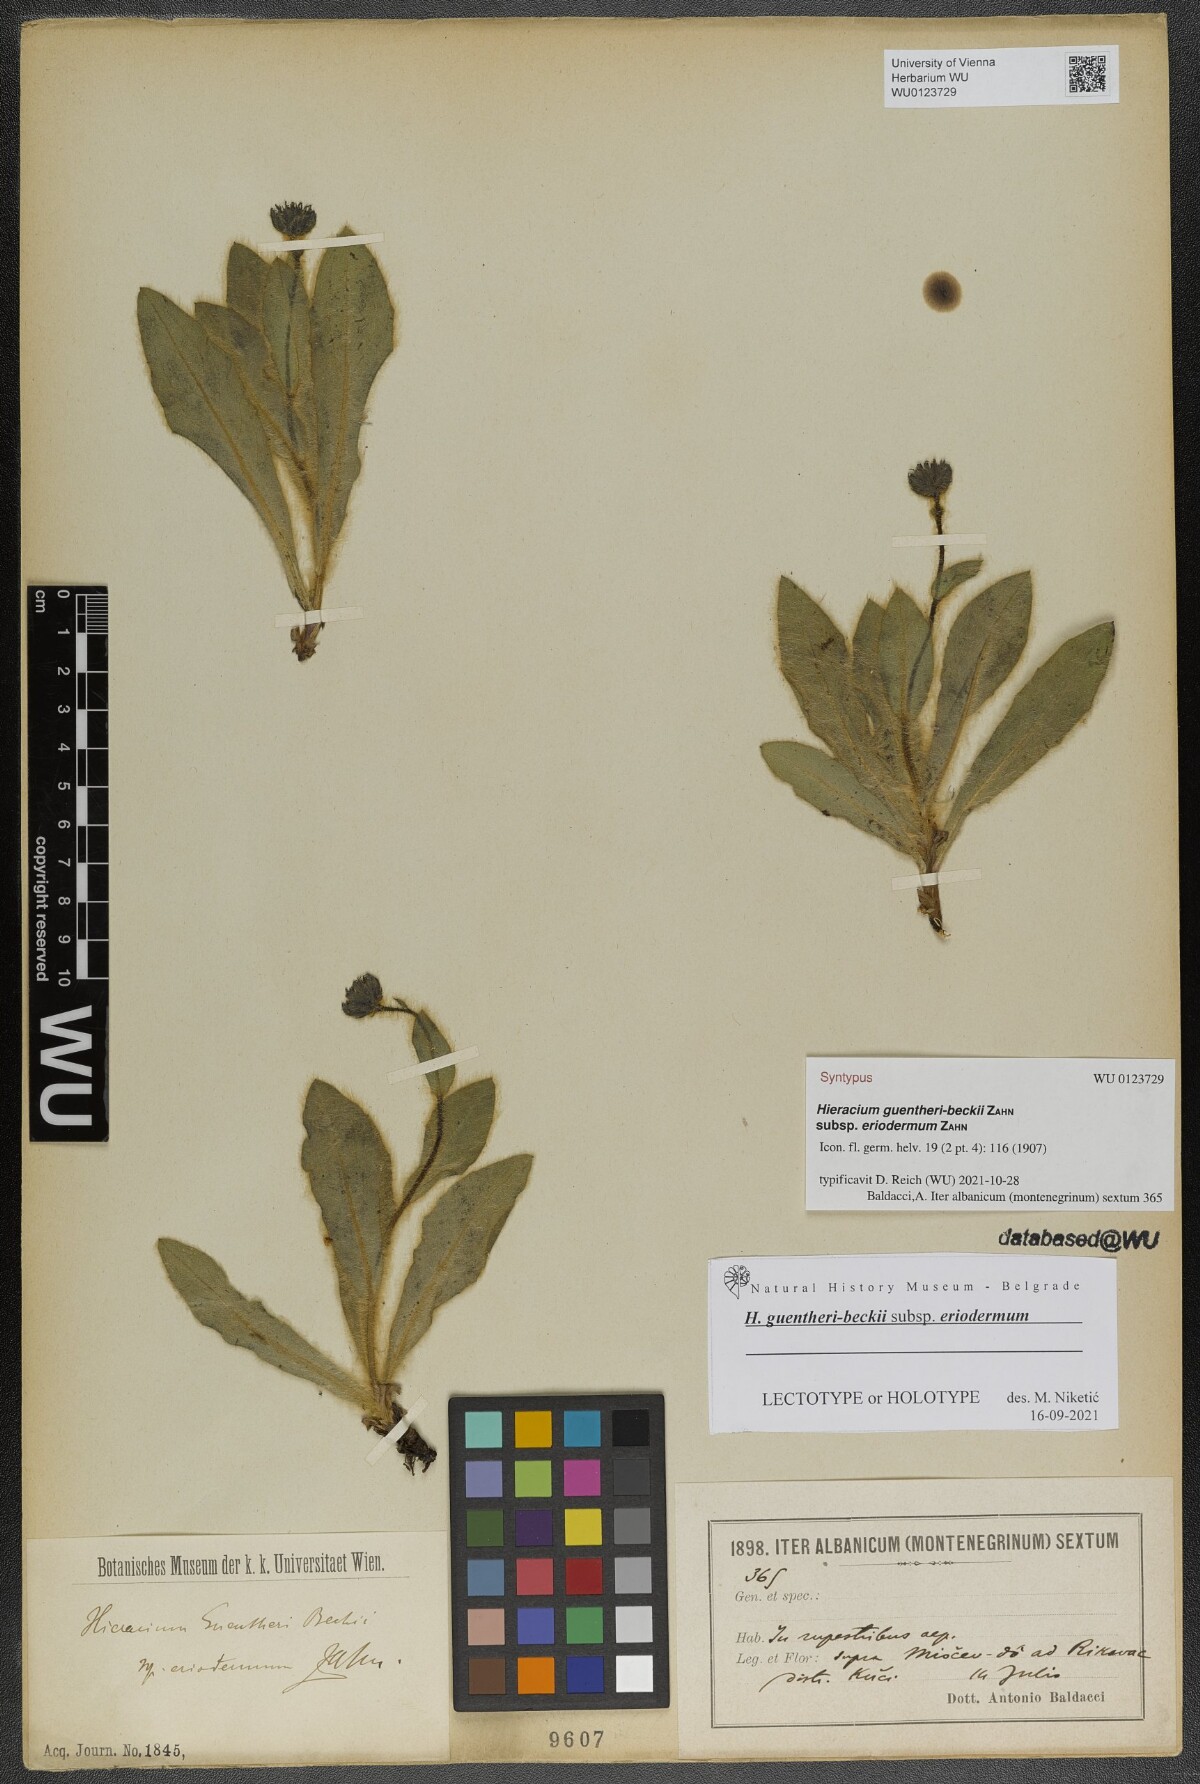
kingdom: Plantae
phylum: Tracheophyta
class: Magnoliopsida
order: Asterales
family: Asteraceae
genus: Hieracium
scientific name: Hieracium guentheri-beckii
